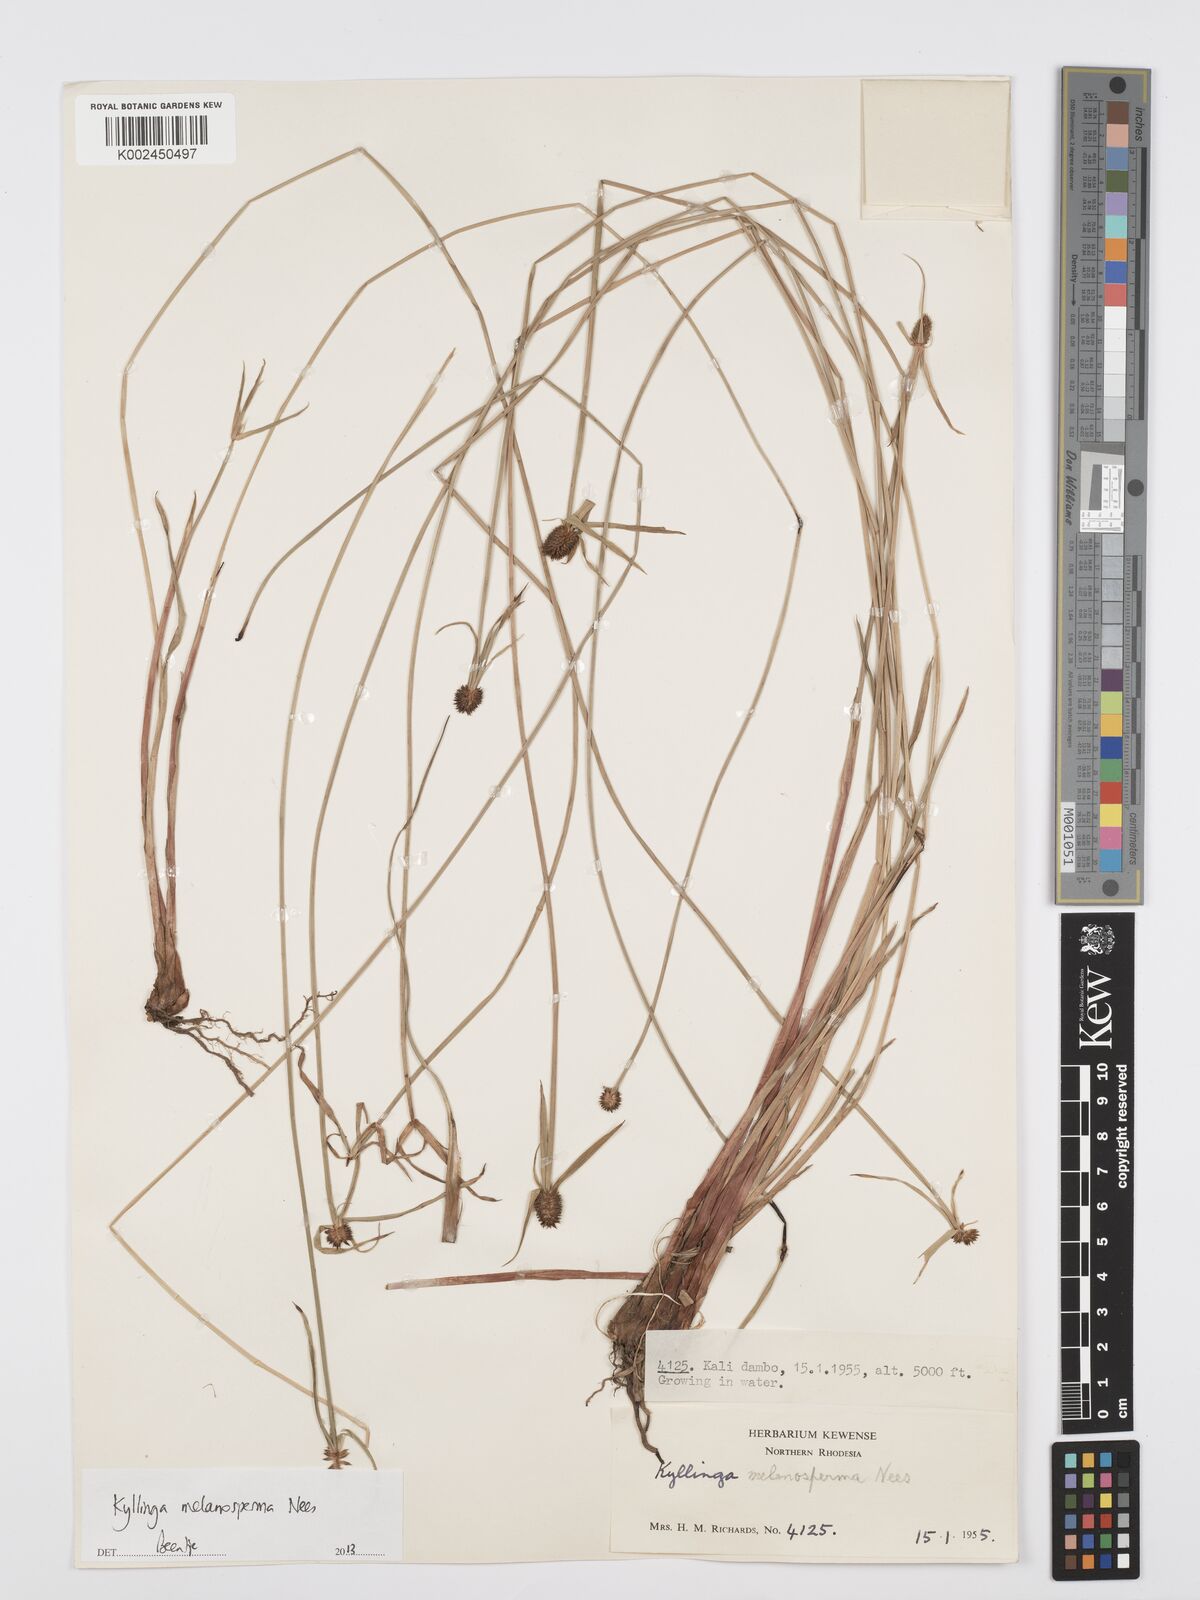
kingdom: Plantae
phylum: Tracheophyta
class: Liliopsida
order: Poales
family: Cyperaceae
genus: Cyperus
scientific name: Cyperus melanospermus
